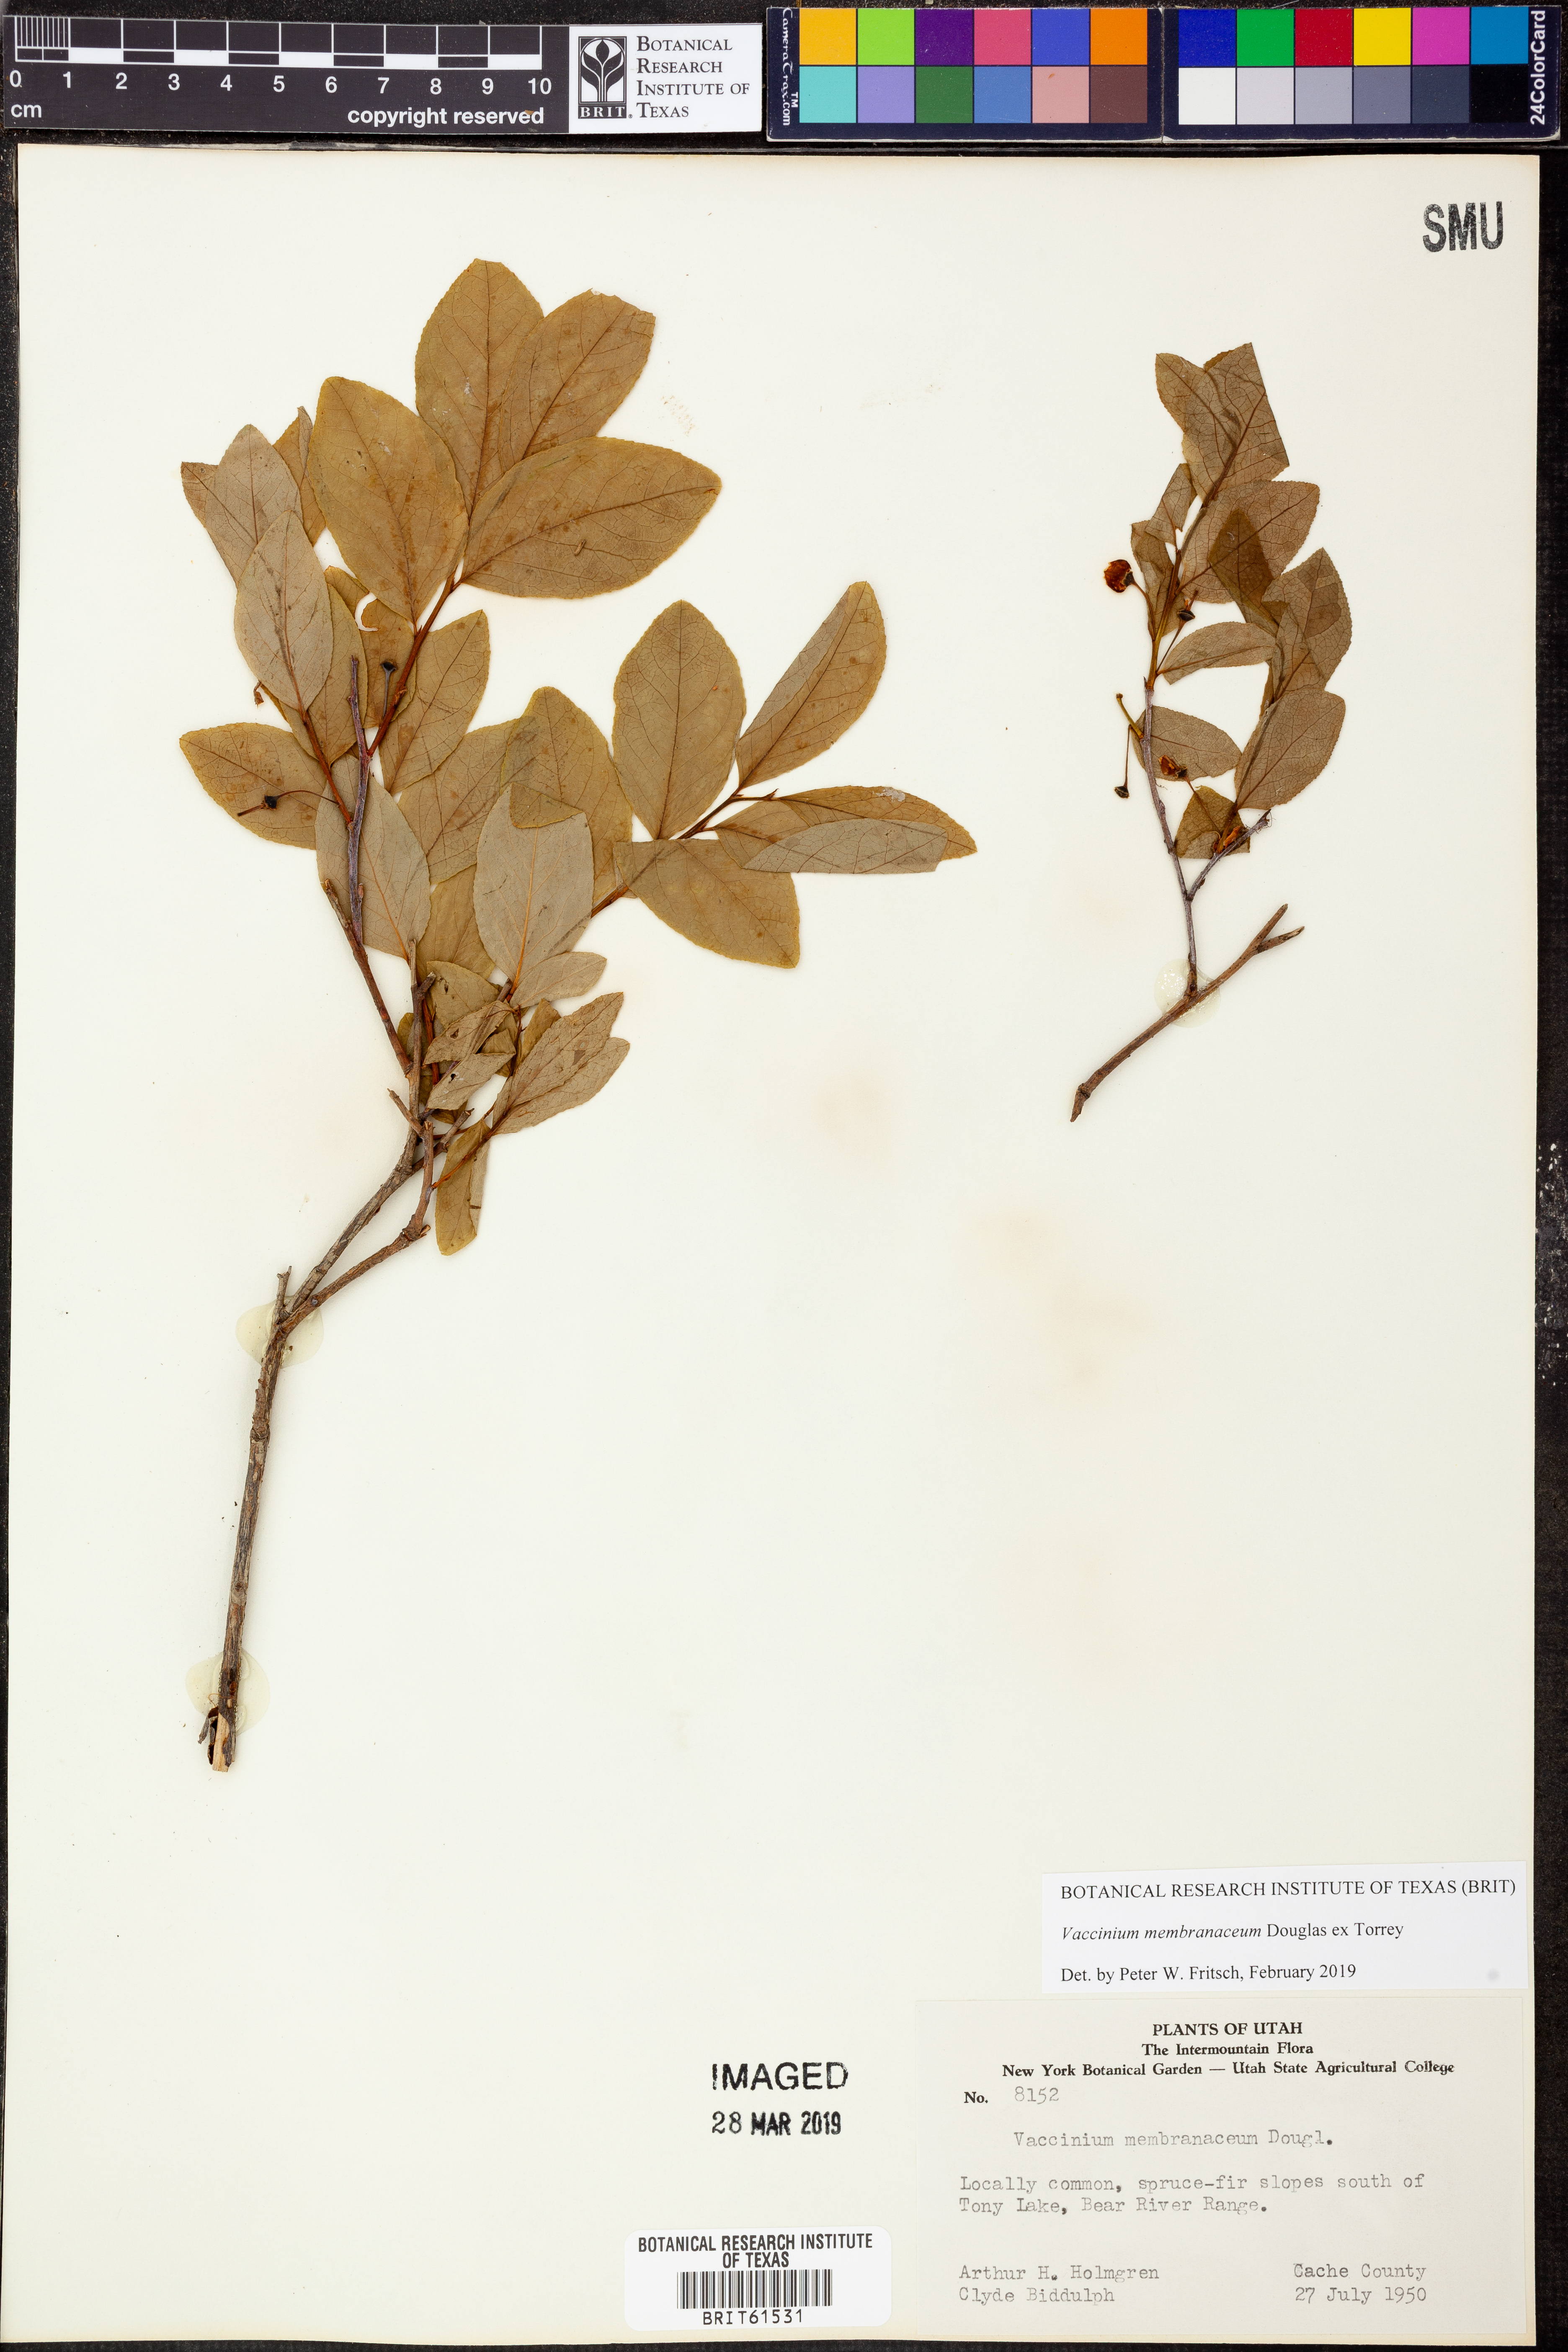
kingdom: Plantae
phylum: Tracheophyta
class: Magnoliopsida
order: Ericales
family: Ericaceae
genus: Vaccinium
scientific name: Vaccinium membranaceum
